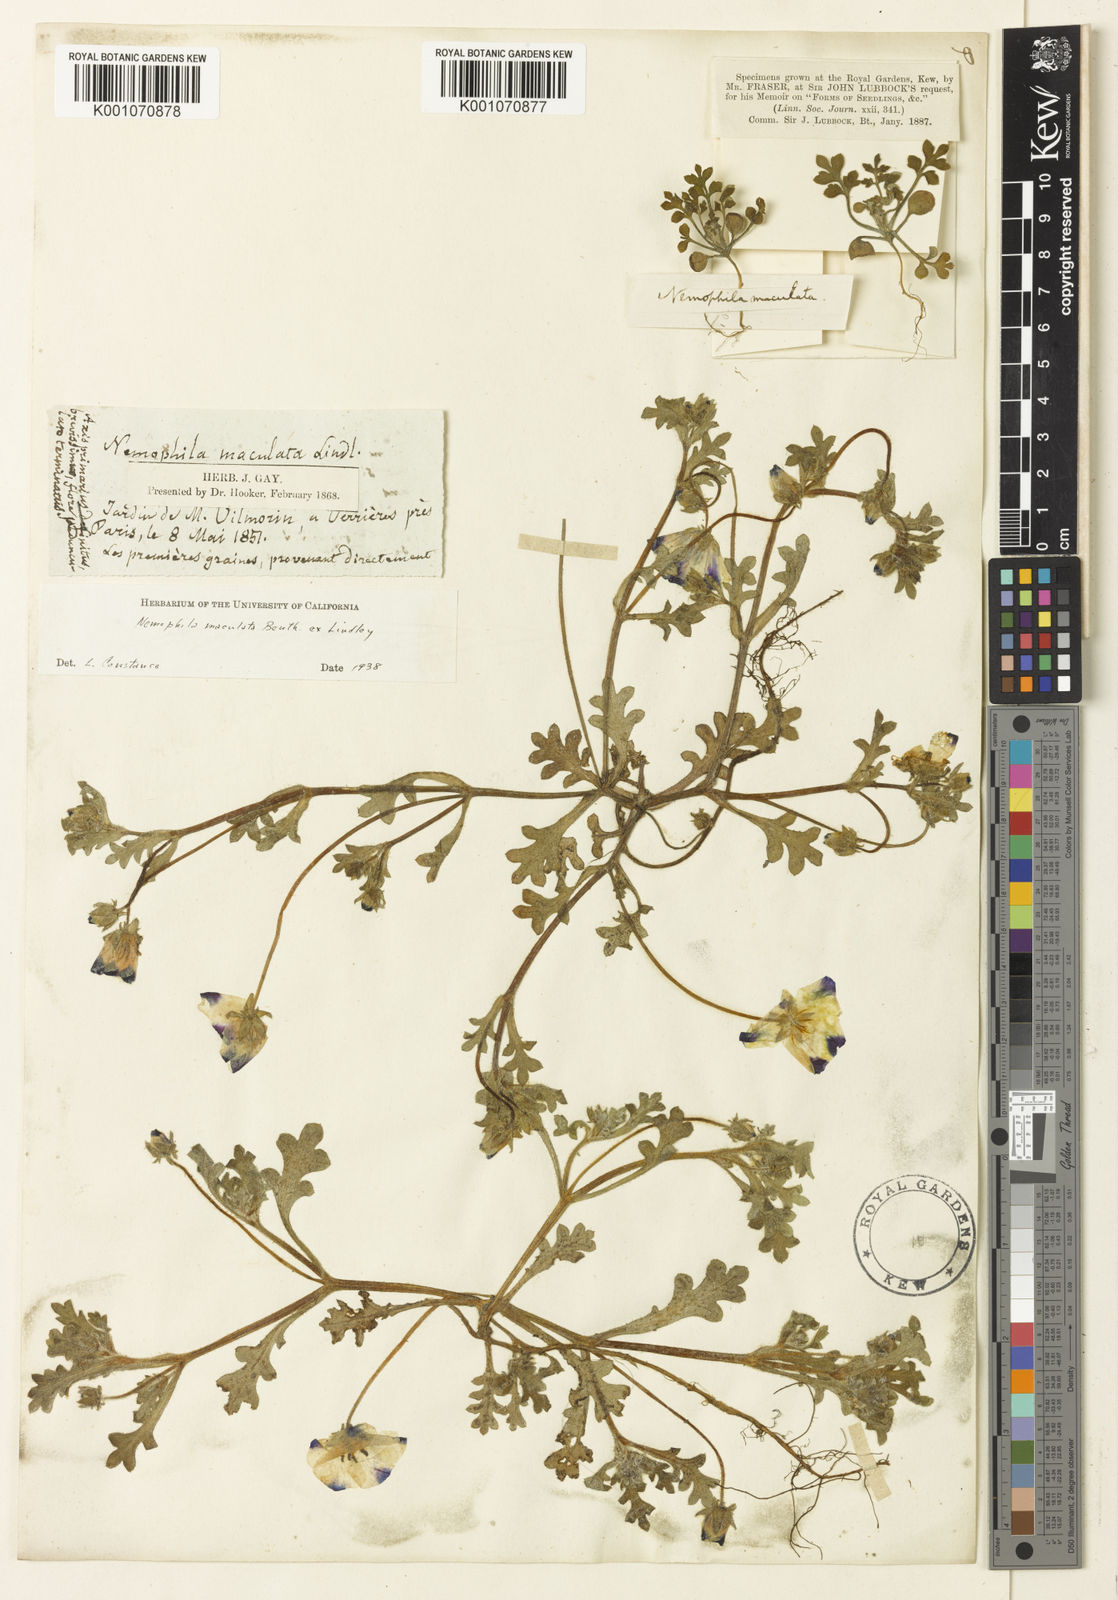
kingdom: Plantae
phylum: Tracheophyta
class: Magnoliopsida
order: Boraginales
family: Hydrophyllaceae
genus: Nemophila
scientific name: Nemophila maculata
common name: Fivespot
